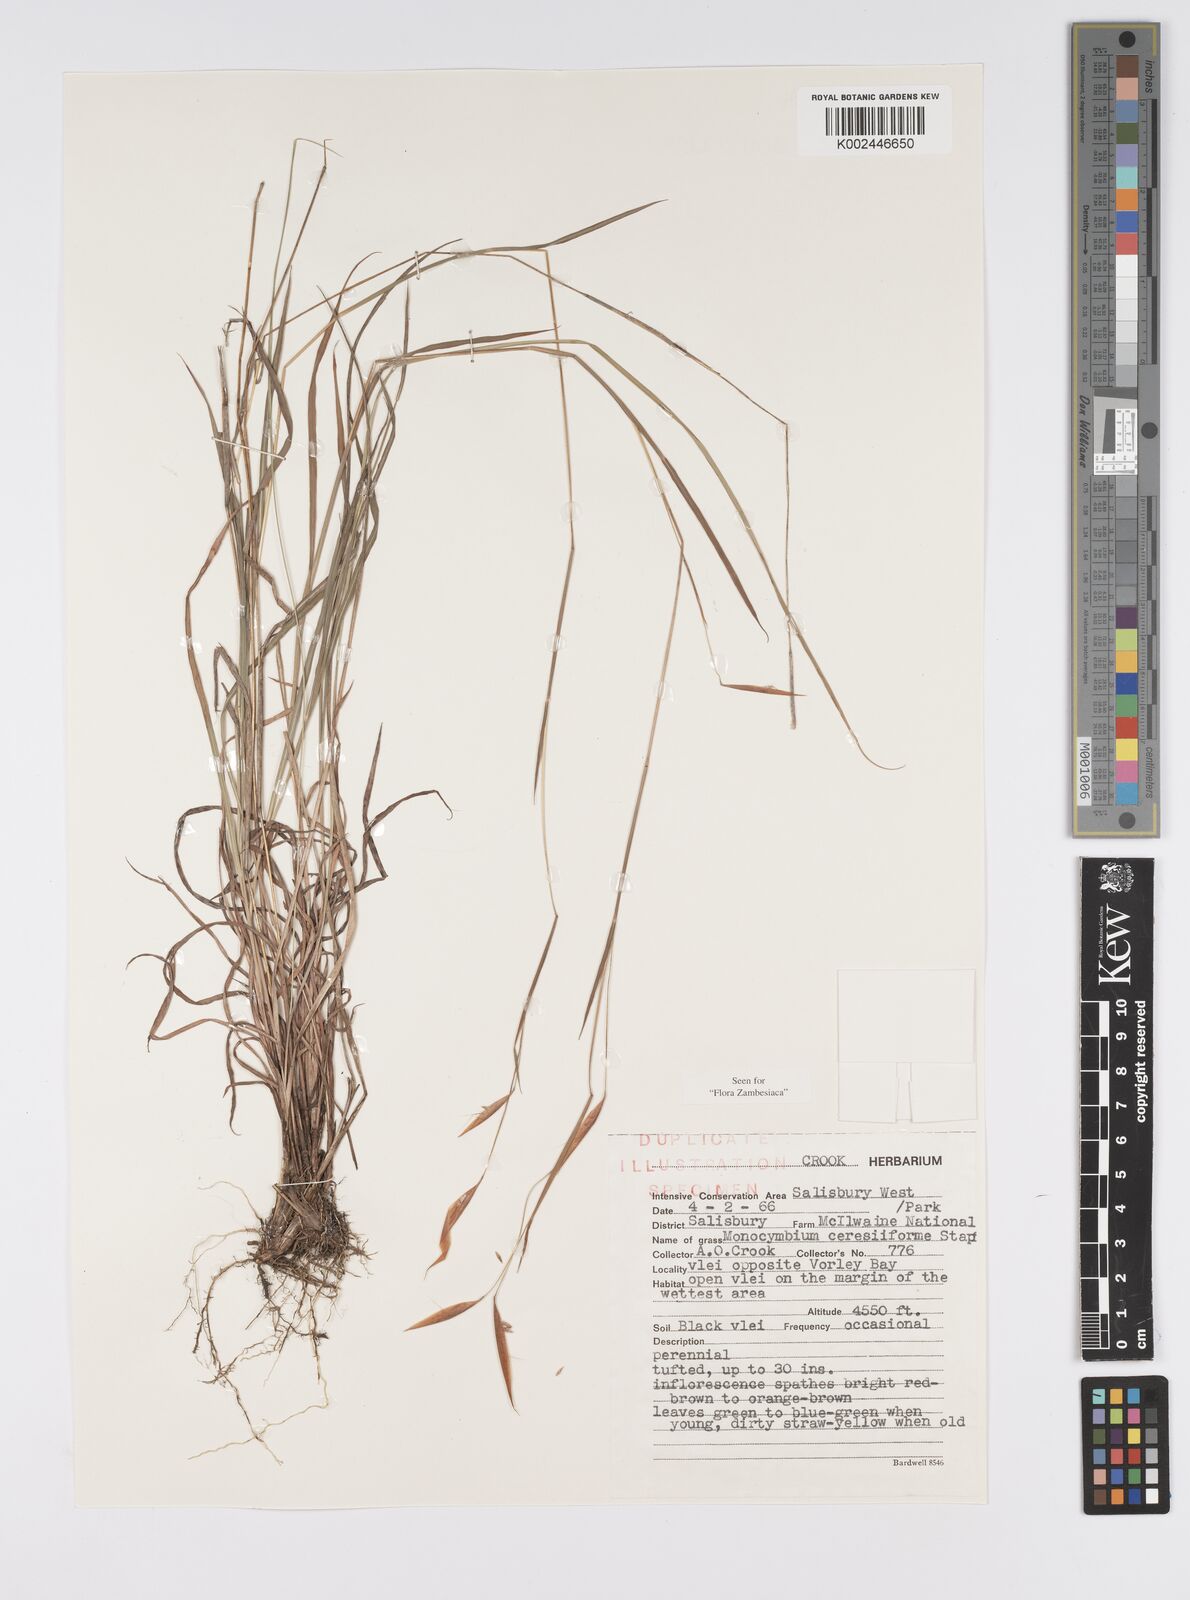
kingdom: Plantae
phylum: Tracheophyta
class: Liliopsida
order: Poales
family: Poaceae
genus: Monocymbium
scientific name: Monocymbium ceresiiforme
